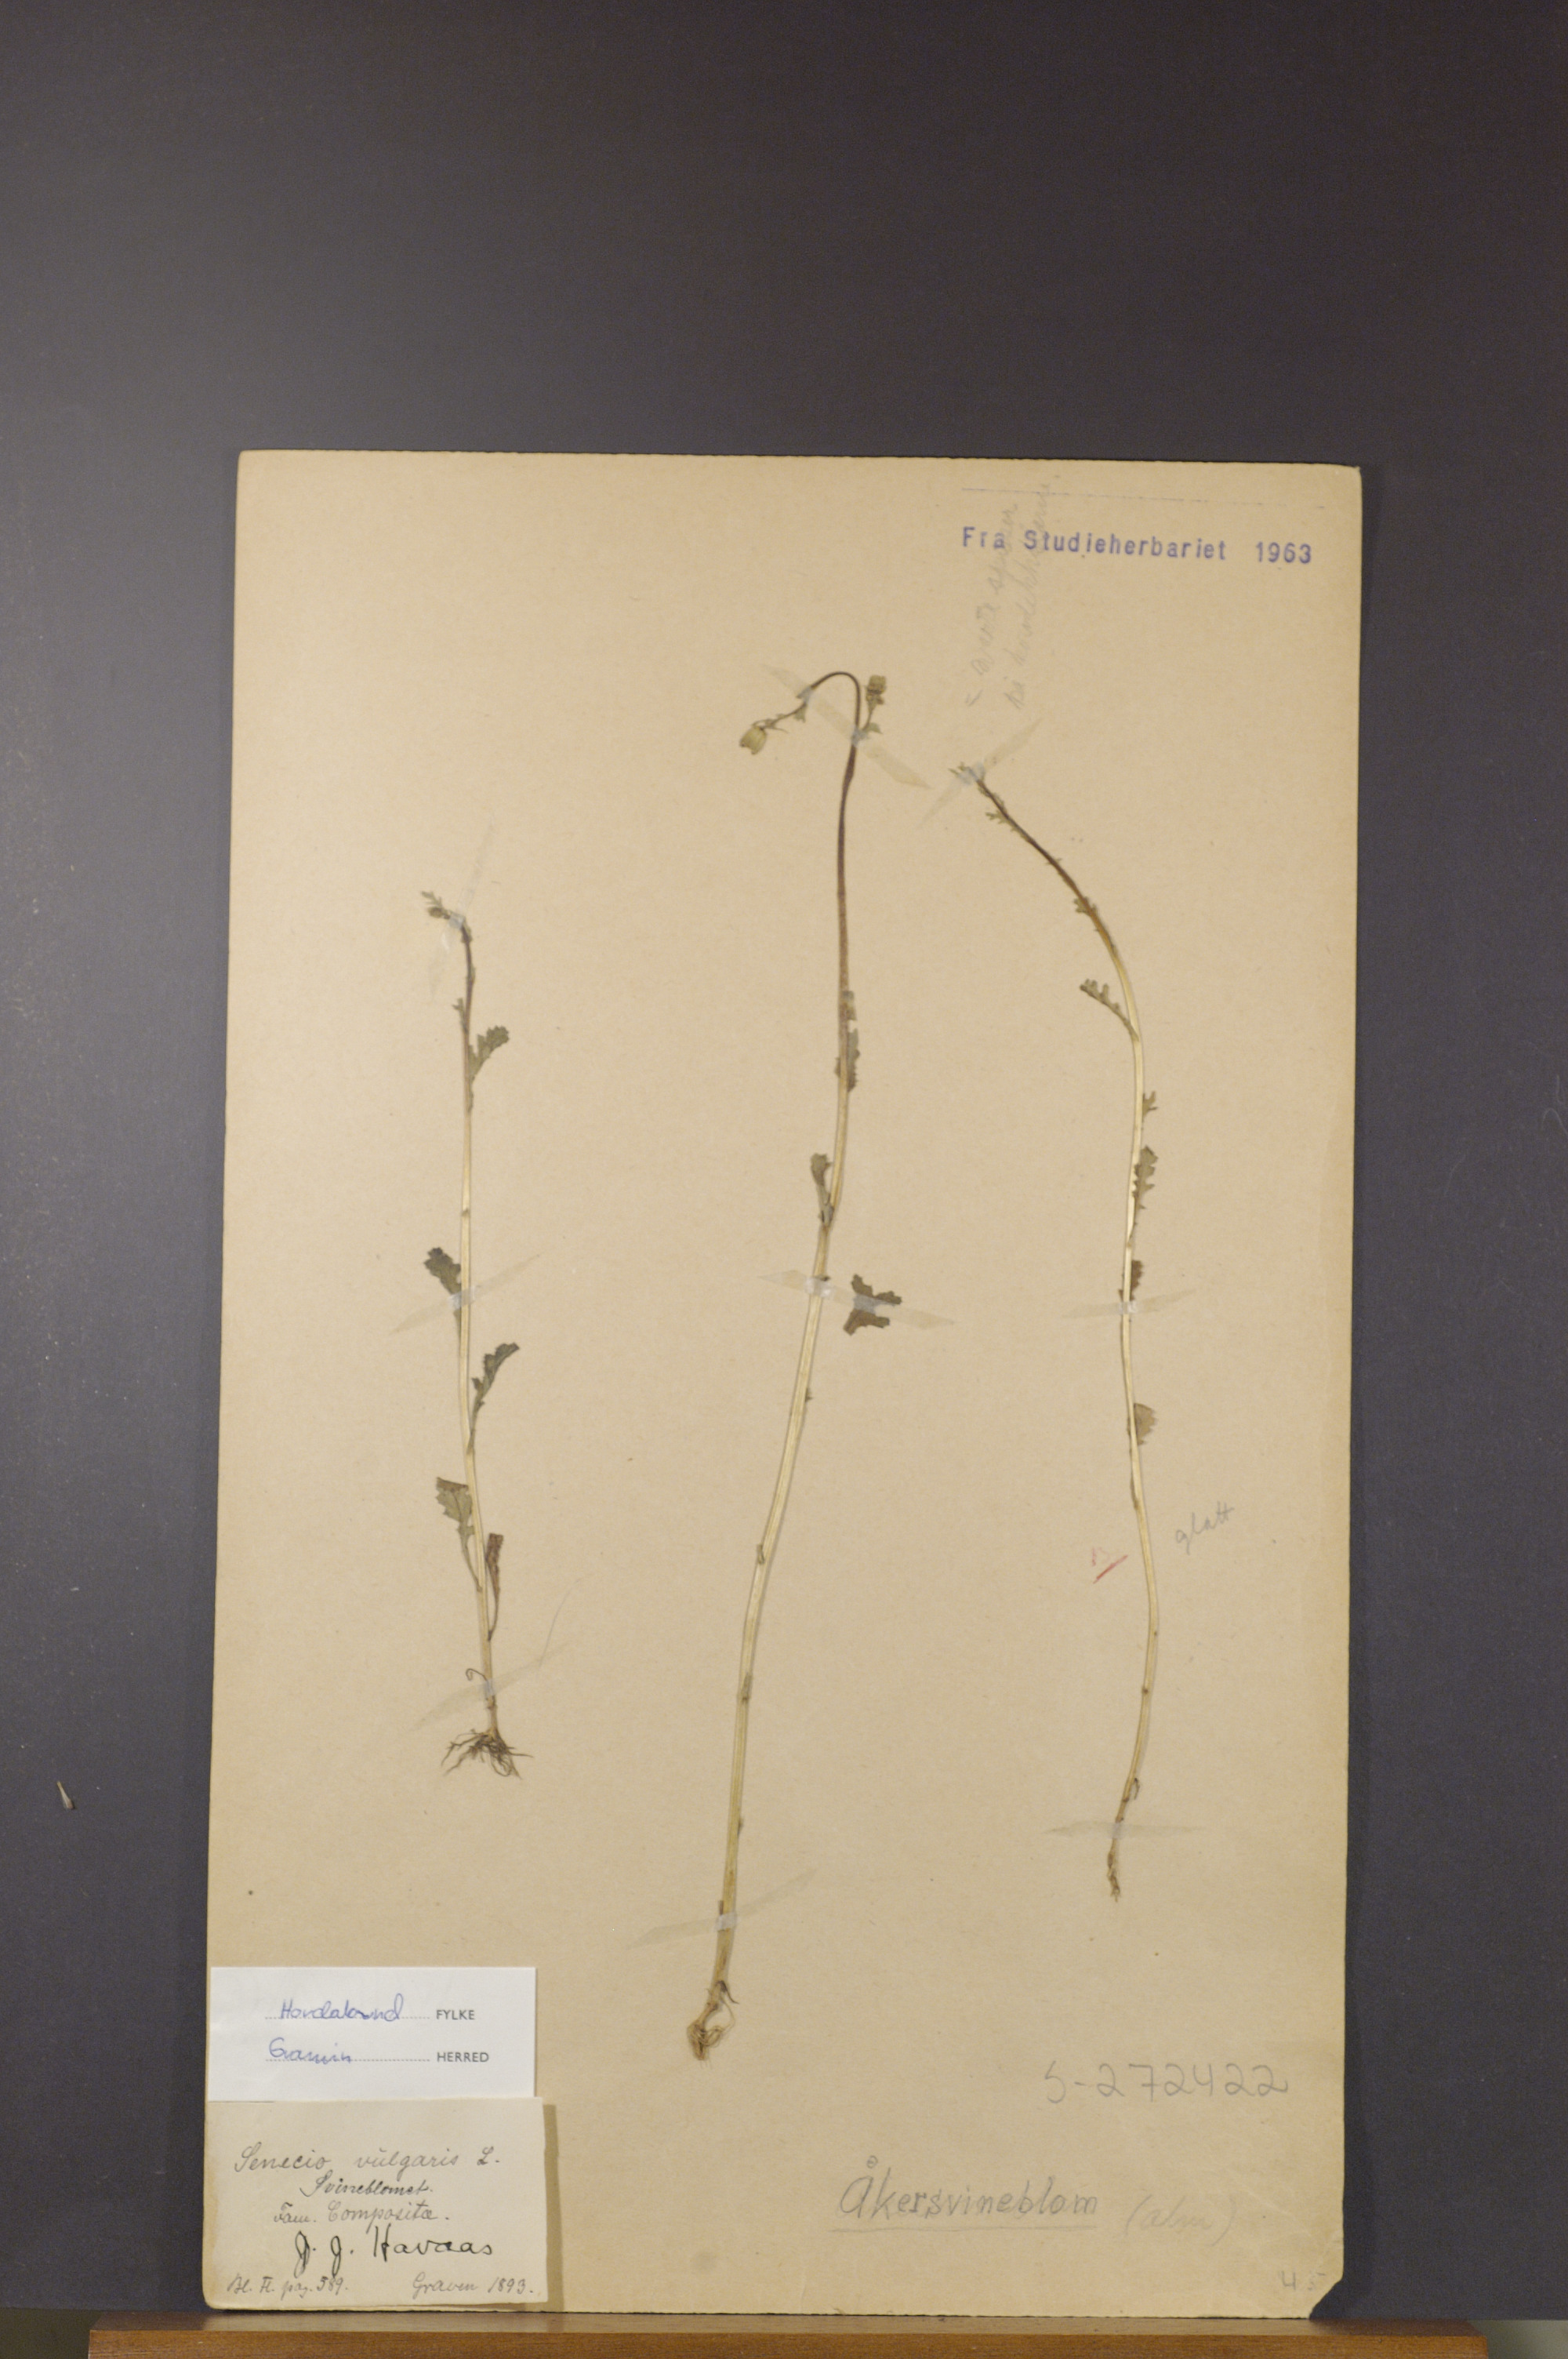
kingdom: Plantae
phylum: Tracheophyta
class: Magnoliopsida
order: Asterales
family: Asteraceae
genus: Senecio
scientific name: Senecio vulgaris
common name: Old-man-in-the-spring
